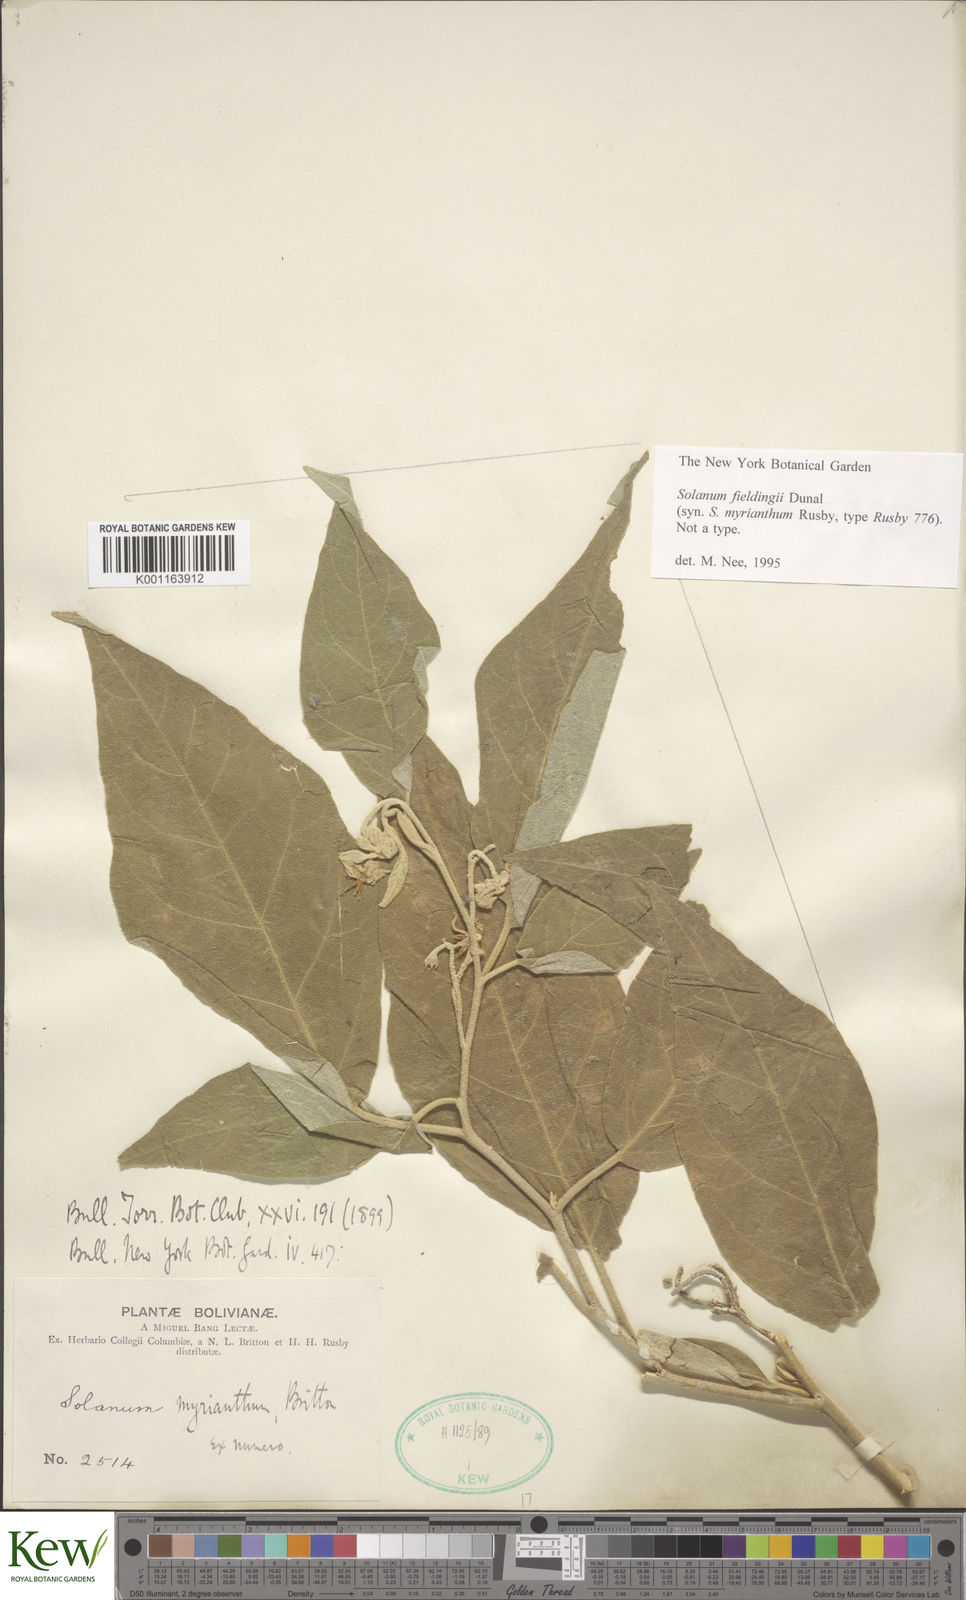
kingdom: Plantae
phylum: Tracheophyta
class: Magnoliopsida
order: Solanales
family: Solanaceae
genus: Solanum
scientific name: Solanum acutilobum
